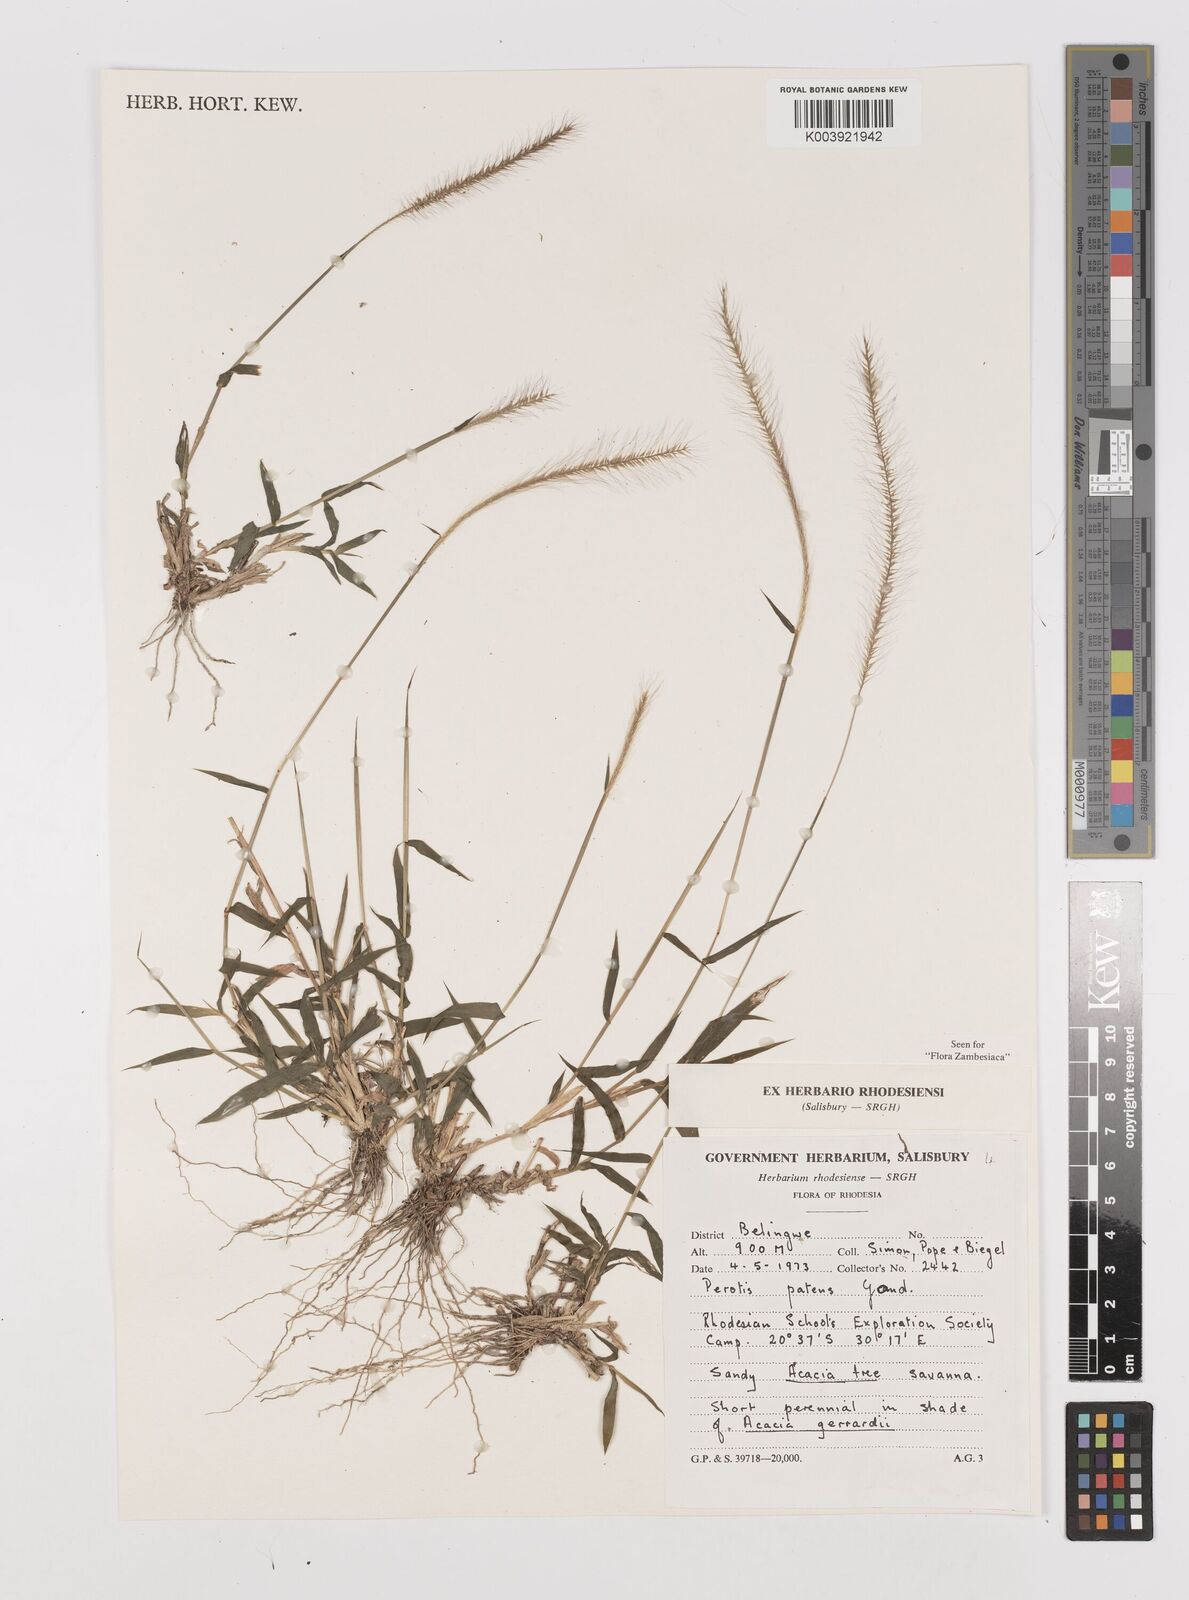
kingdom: Plantae
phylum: Tracheophyta
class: Liliopsida
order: Poales
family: Poaceae
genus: Perotis
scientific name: Perotis patens
